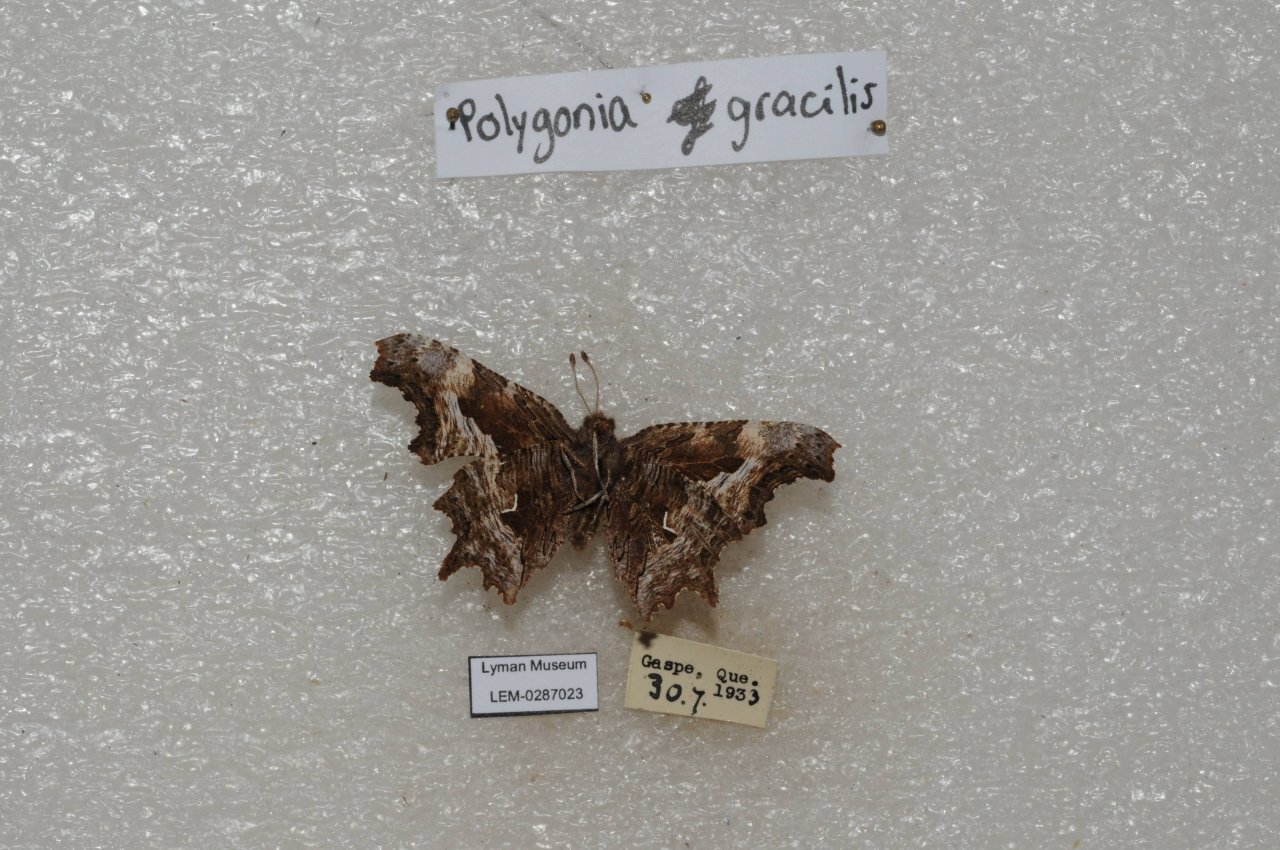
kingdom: Animalia
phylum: Arthropoda
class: Insecta
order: Lepidoptera
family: Nymphalidae
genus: Polygonia
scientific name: Polygonia gracilis
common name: Hoary Comma
